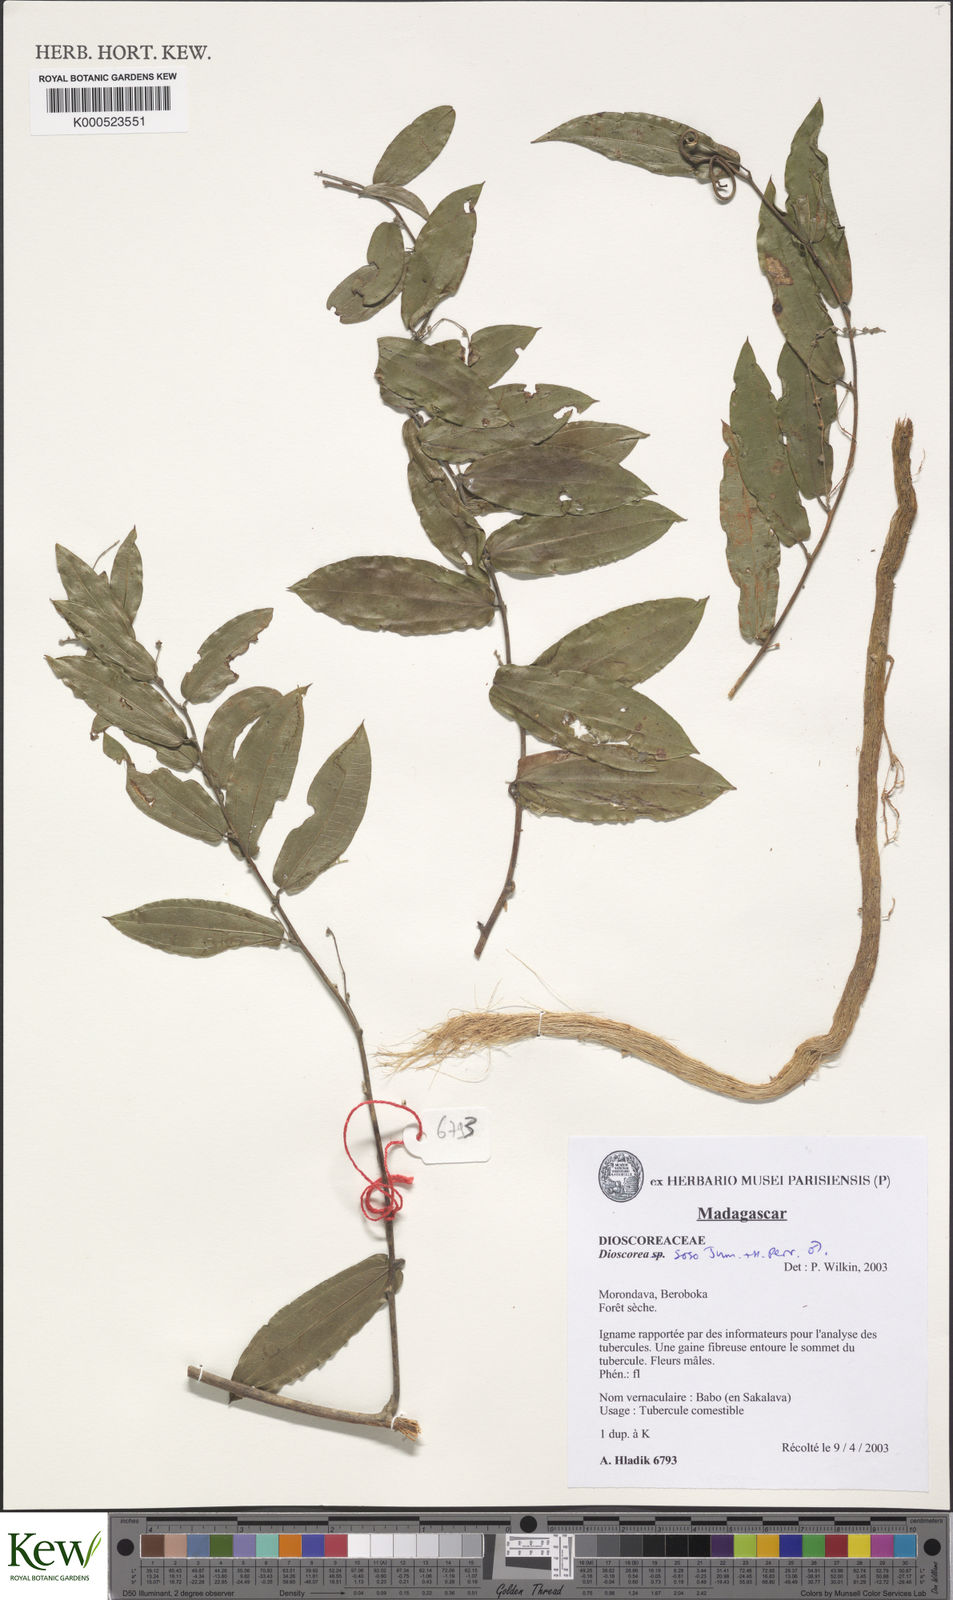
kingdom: Plantae
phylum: Tracheophyta
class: Liliopsida
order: Dioscoreales
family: Dioscoreaceae
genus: Dioscorea
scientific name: Dioscorea soso
